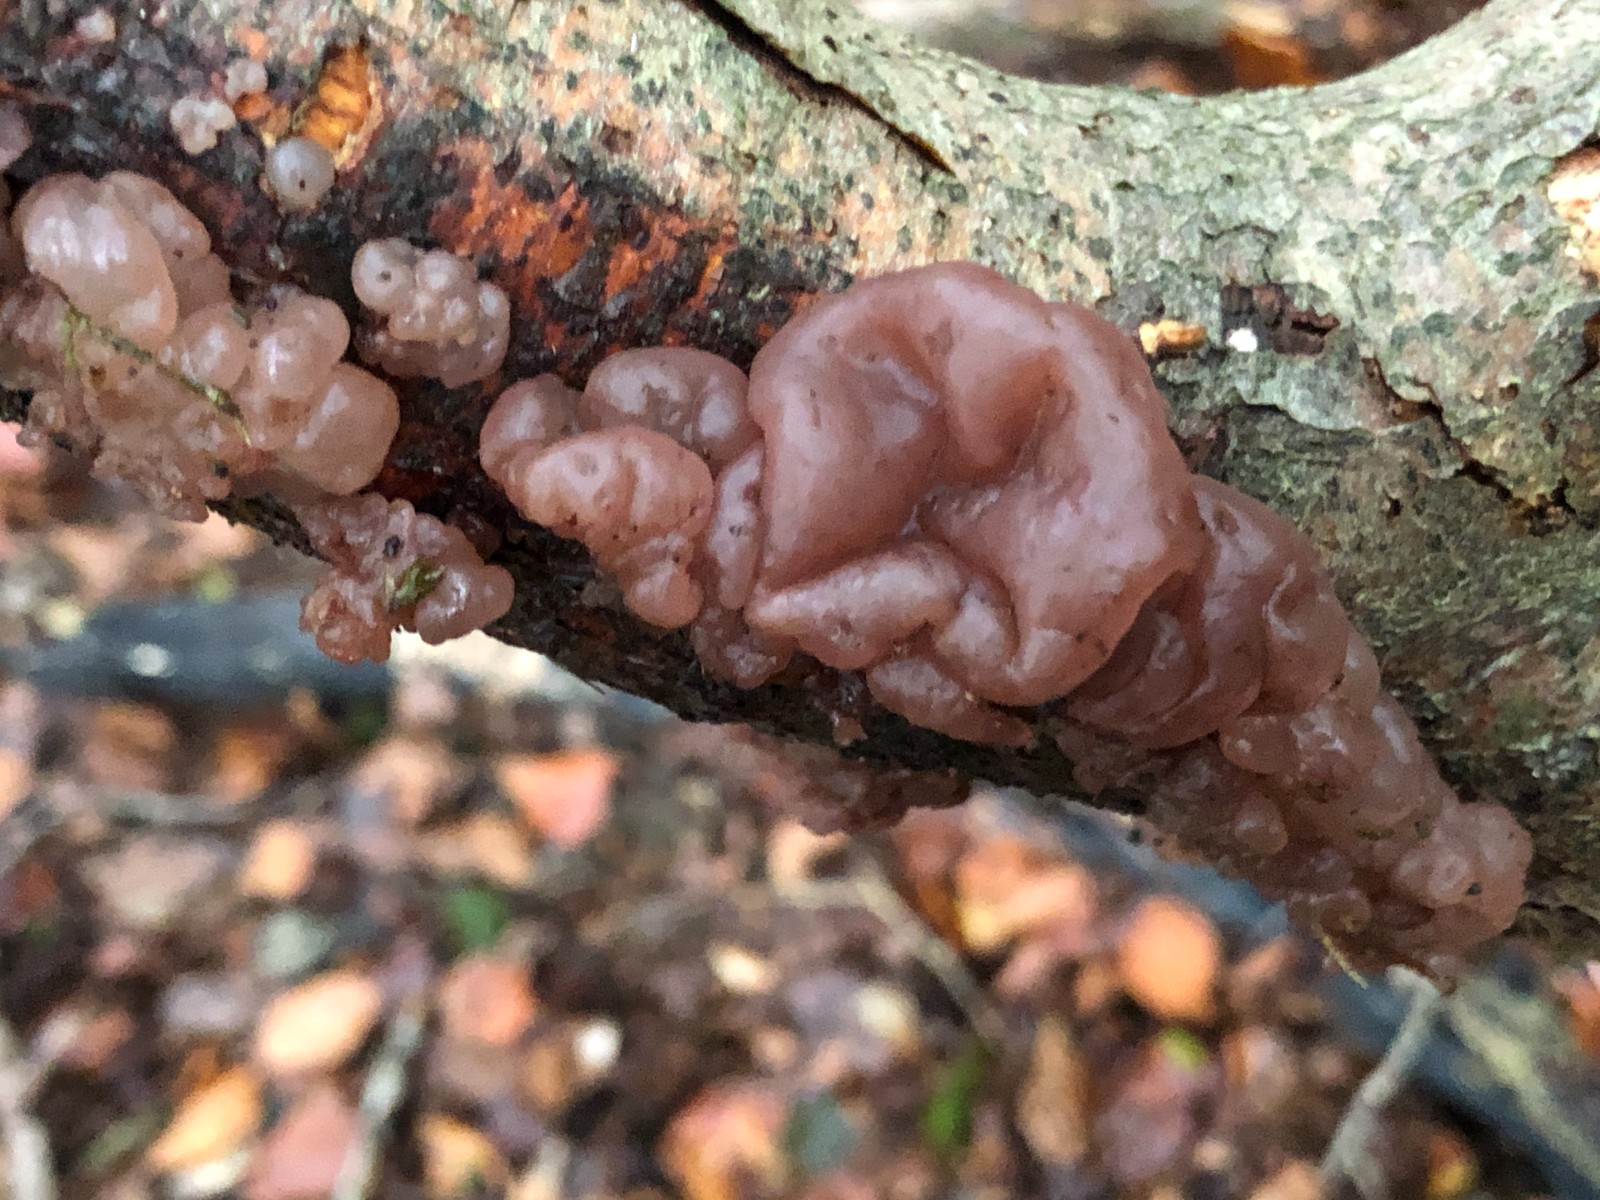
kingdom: Fungi
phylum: Ascomycota
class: Leotiomycetes
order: Helotiales
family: Gelatinodiscaceae
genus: Ascotremella
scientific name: Ascotremella faginea
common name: hjerne-bævreskive
